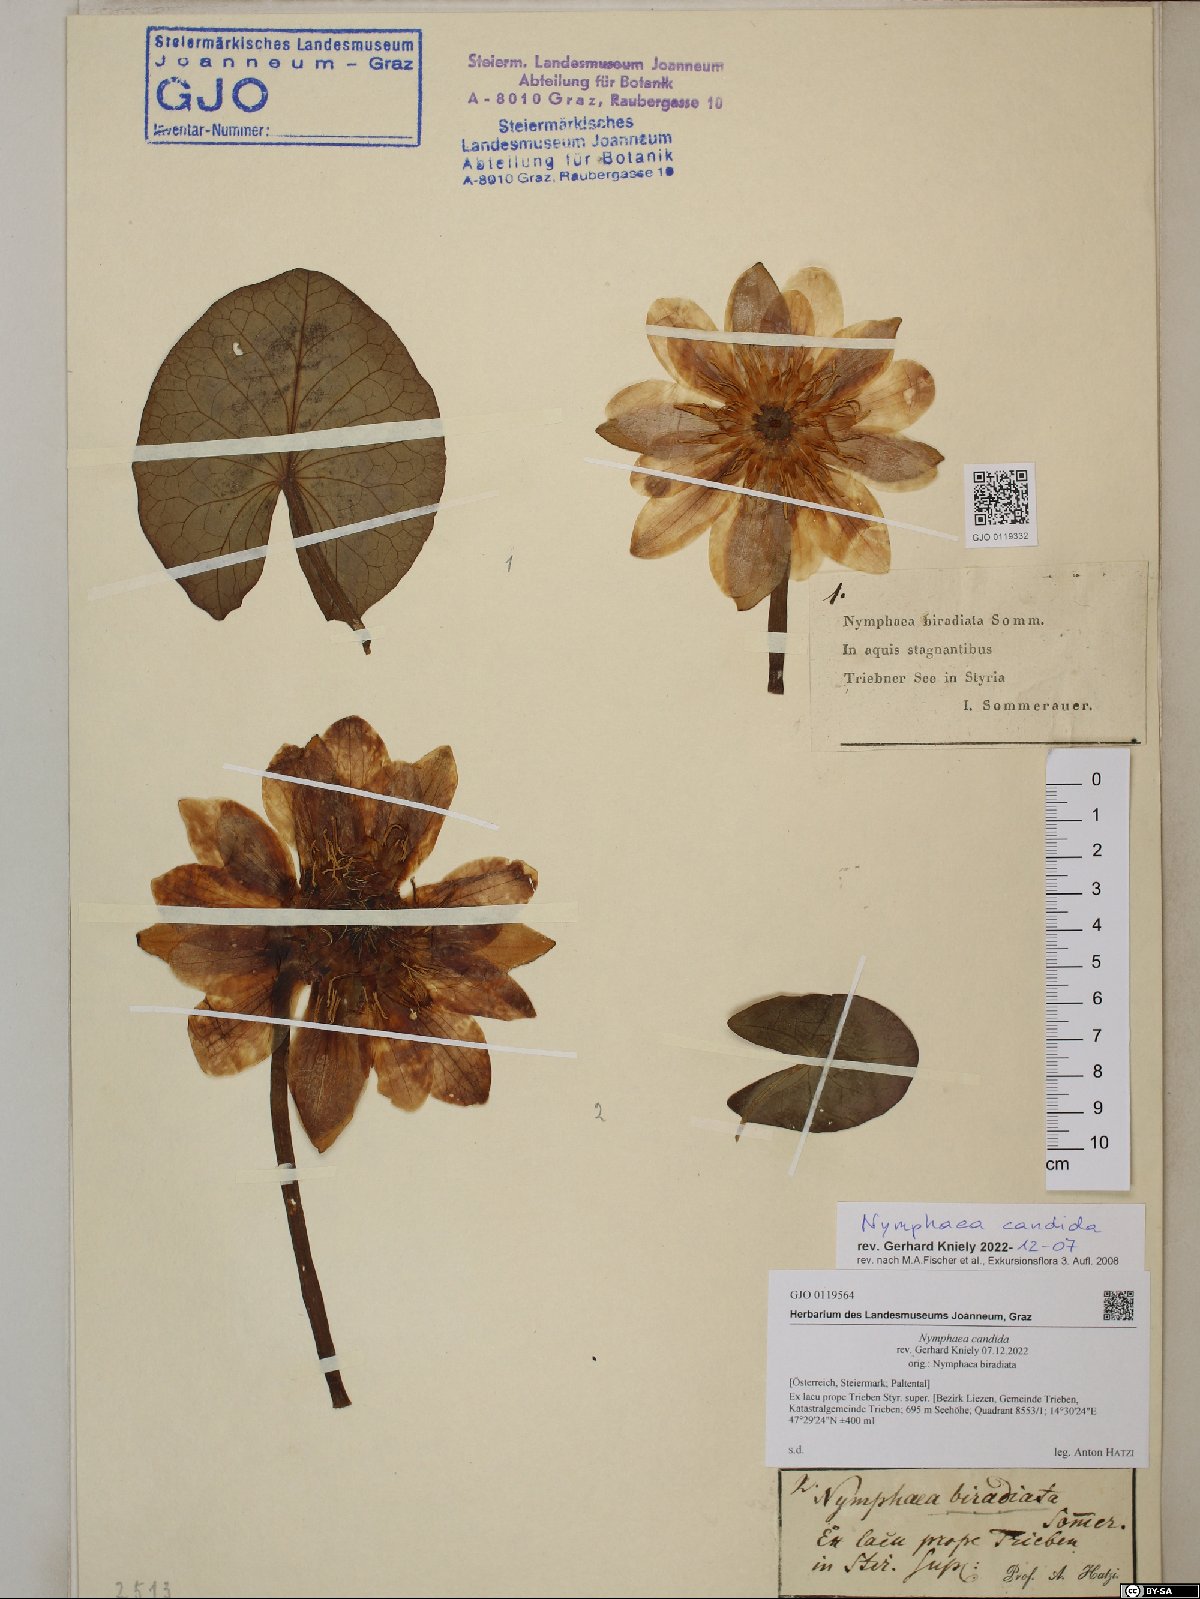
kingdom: Plantae
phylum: Tracheophyta
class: Magnoliopsida
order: Nymphaeales
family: Nymphaeaceae
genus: Nymphaea
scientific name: Nymphaea candida
